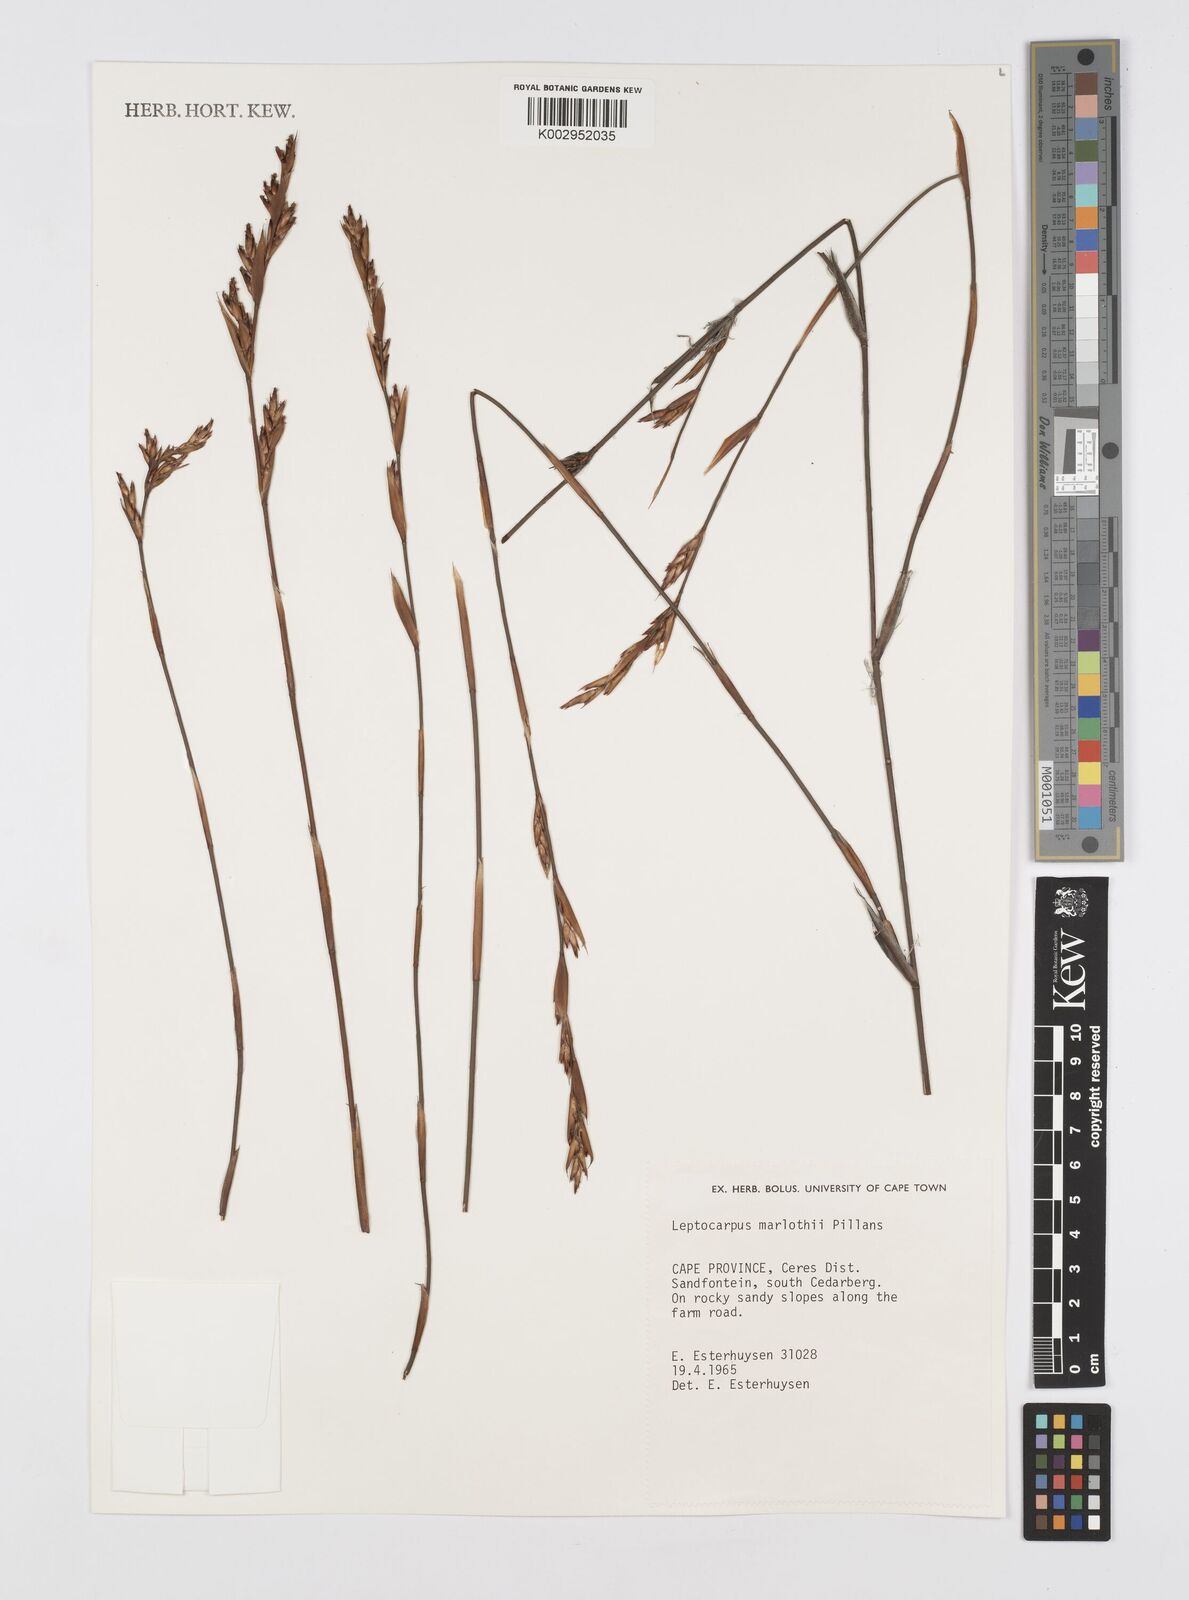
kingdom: Plantae
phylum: Tracheophyta
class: Liliopsida
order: Poales
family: Restionaceae
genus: Restio
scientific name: Restio marlothii
